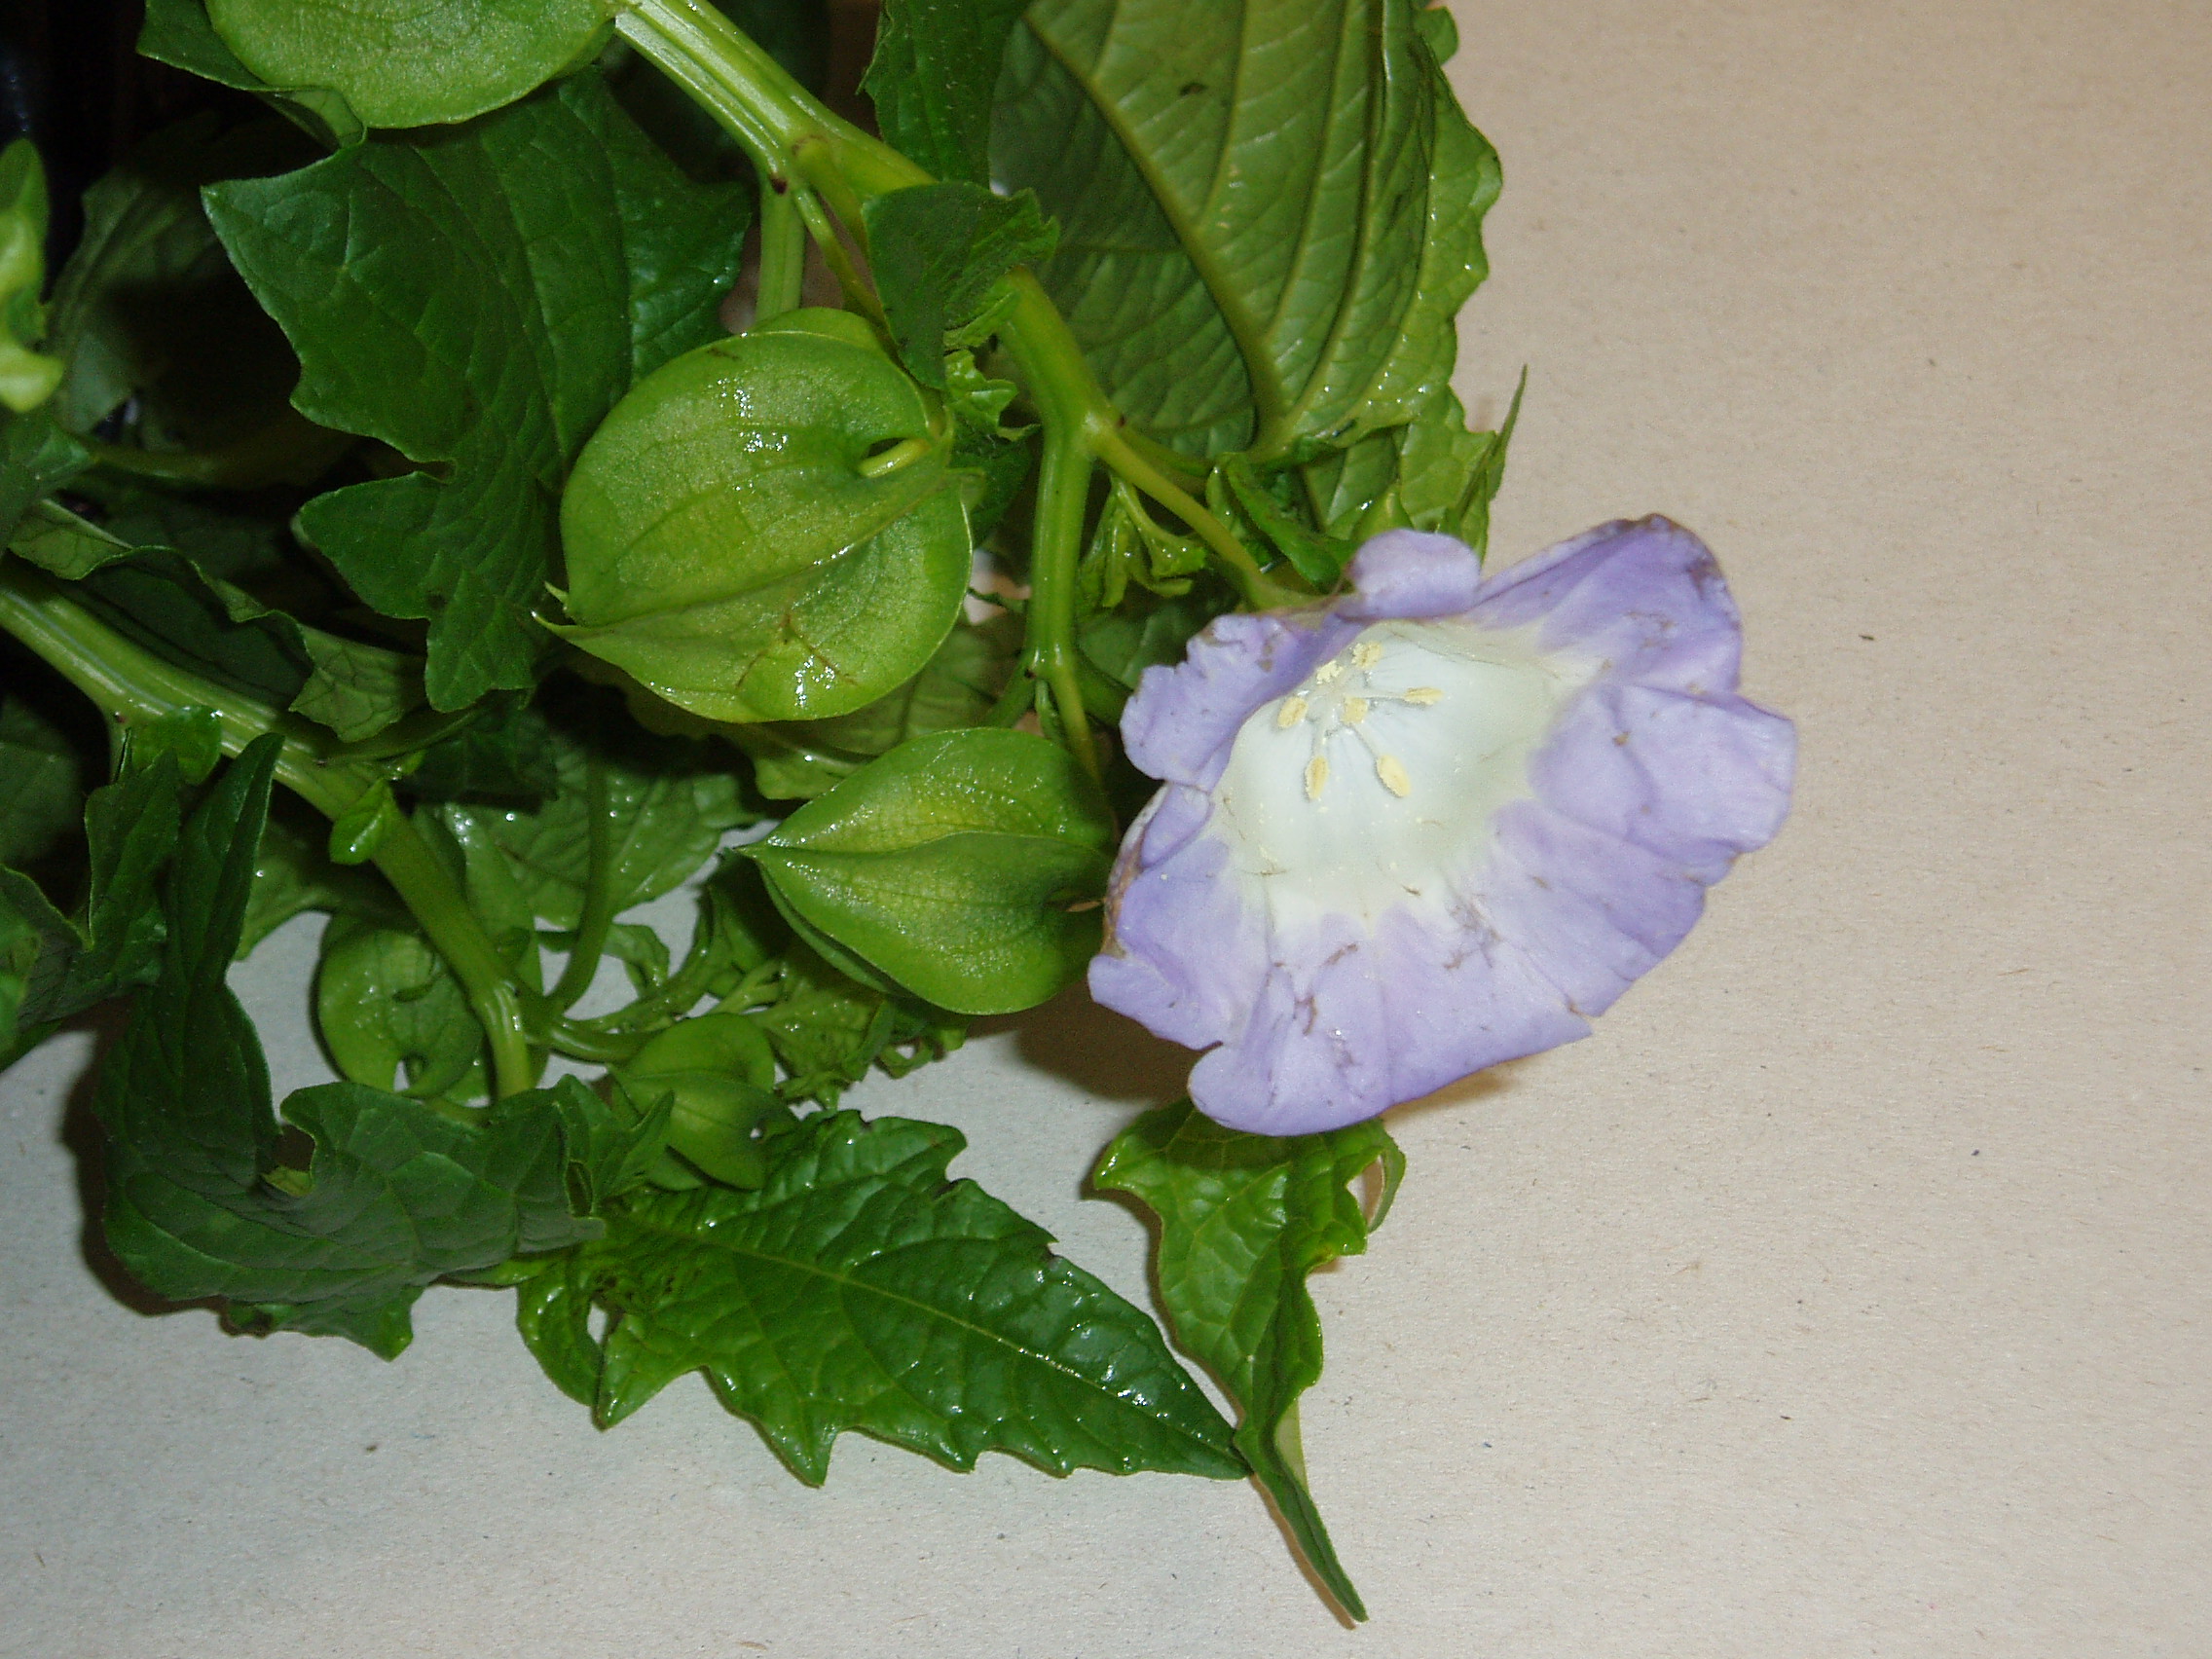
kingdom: Plantae
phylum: Tracheophyta
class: Magnoliopsida
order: Solanales
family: Solanaceae
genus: Nicandra
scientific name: Nicandra physalodes
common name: Apple-of-peru
